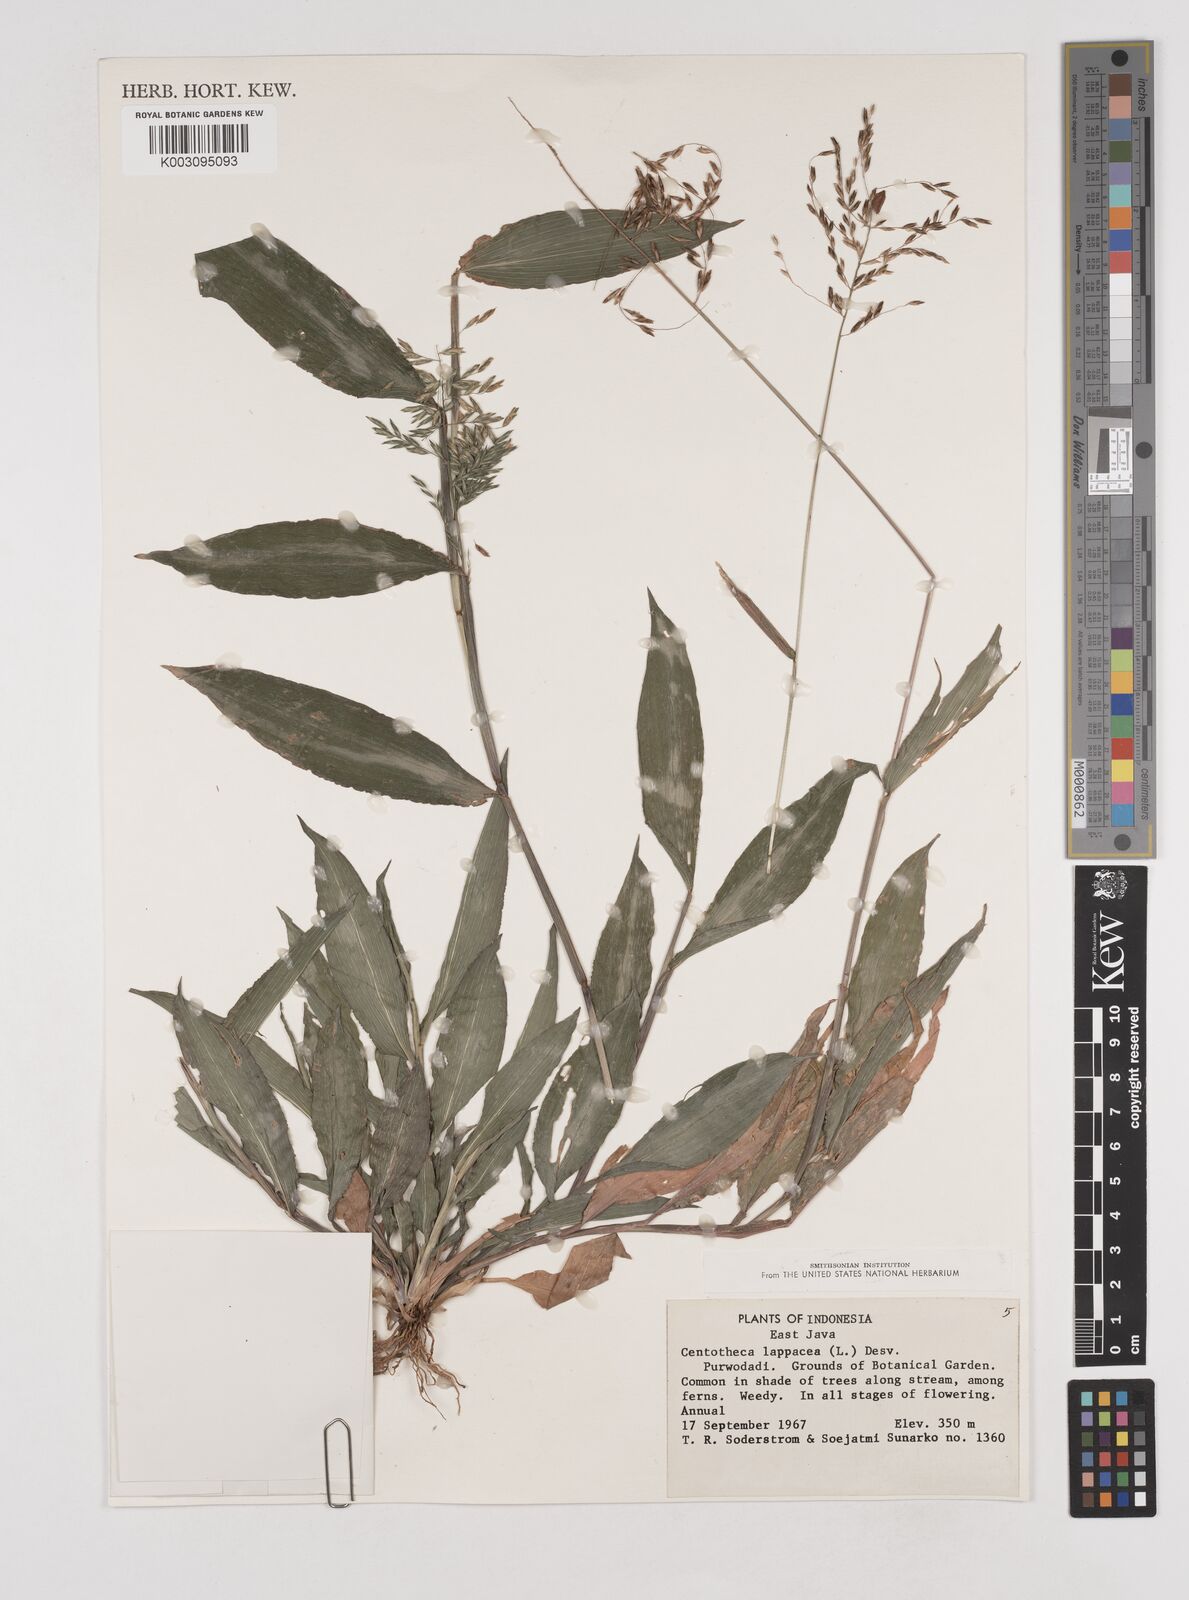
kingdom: Plantae
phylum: Tracheophyta
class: Liliopsida
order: Poales
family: Poaceae
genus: Centotheca
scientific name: Centotheca lappacea
